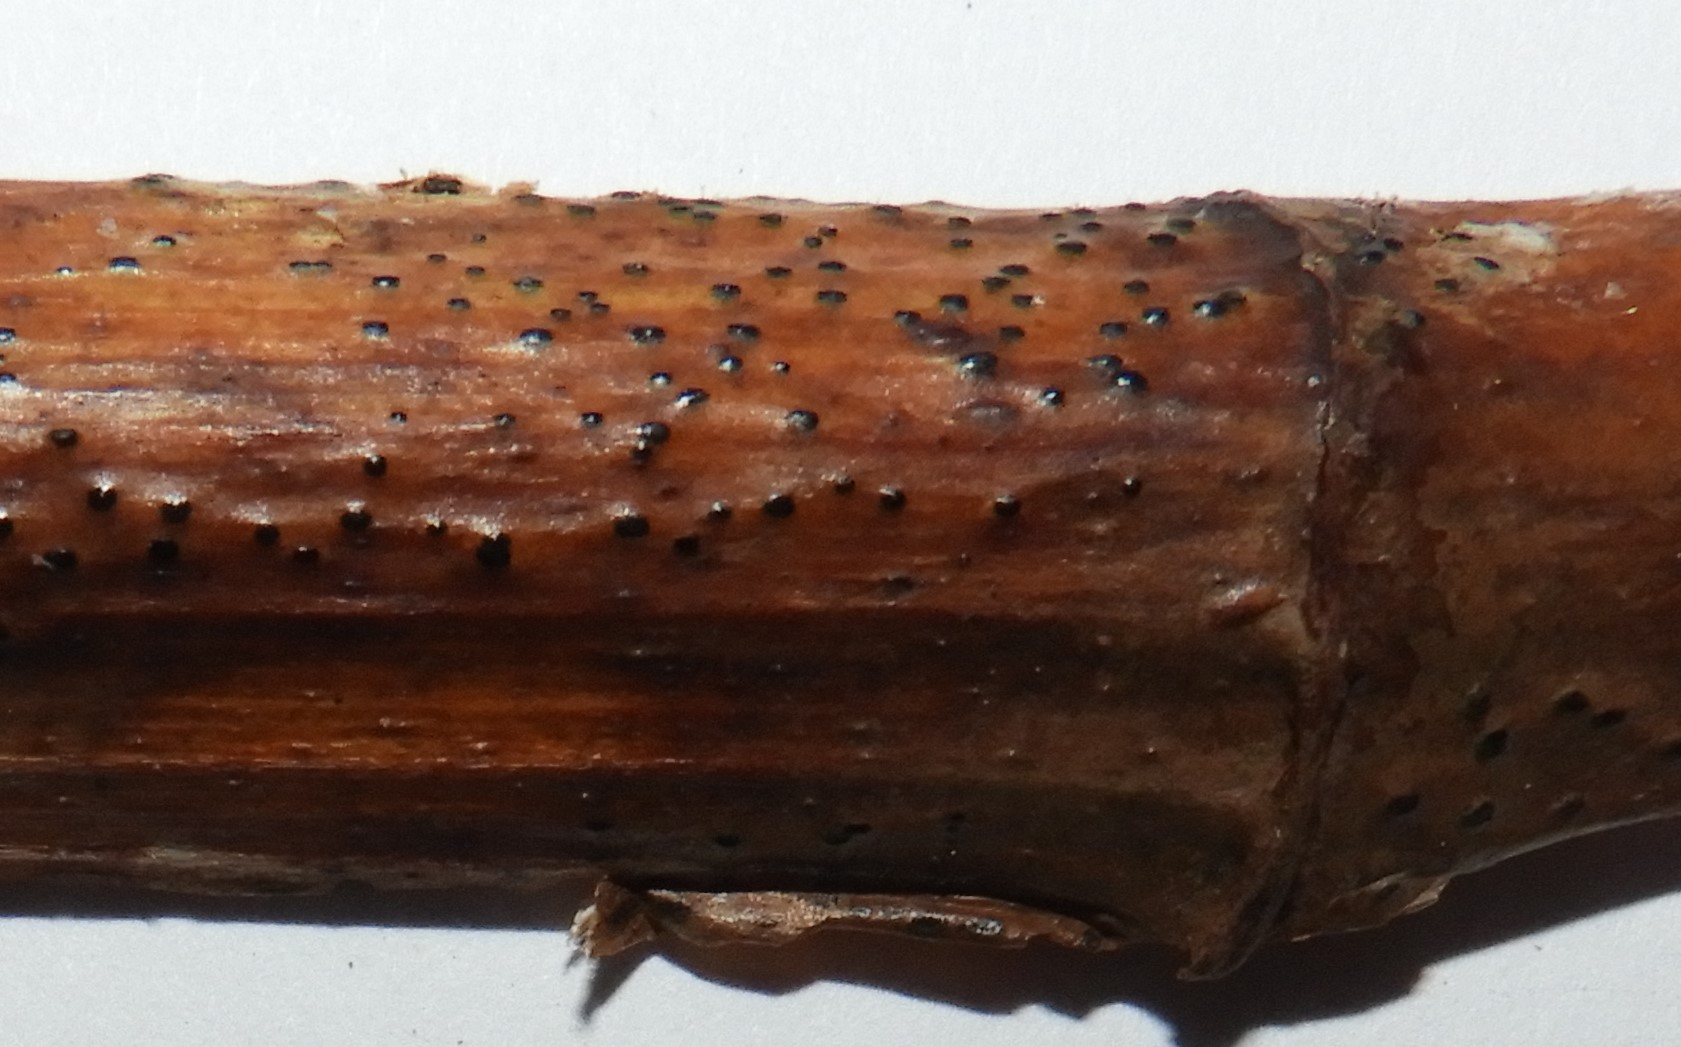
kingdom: Fungi
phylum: Ascomycota
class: Sordariomycetes
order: Amphisphaeriales
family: Amphisphaeriaceae
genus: Ceriospora
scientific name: Ceriospora polygonacearum
